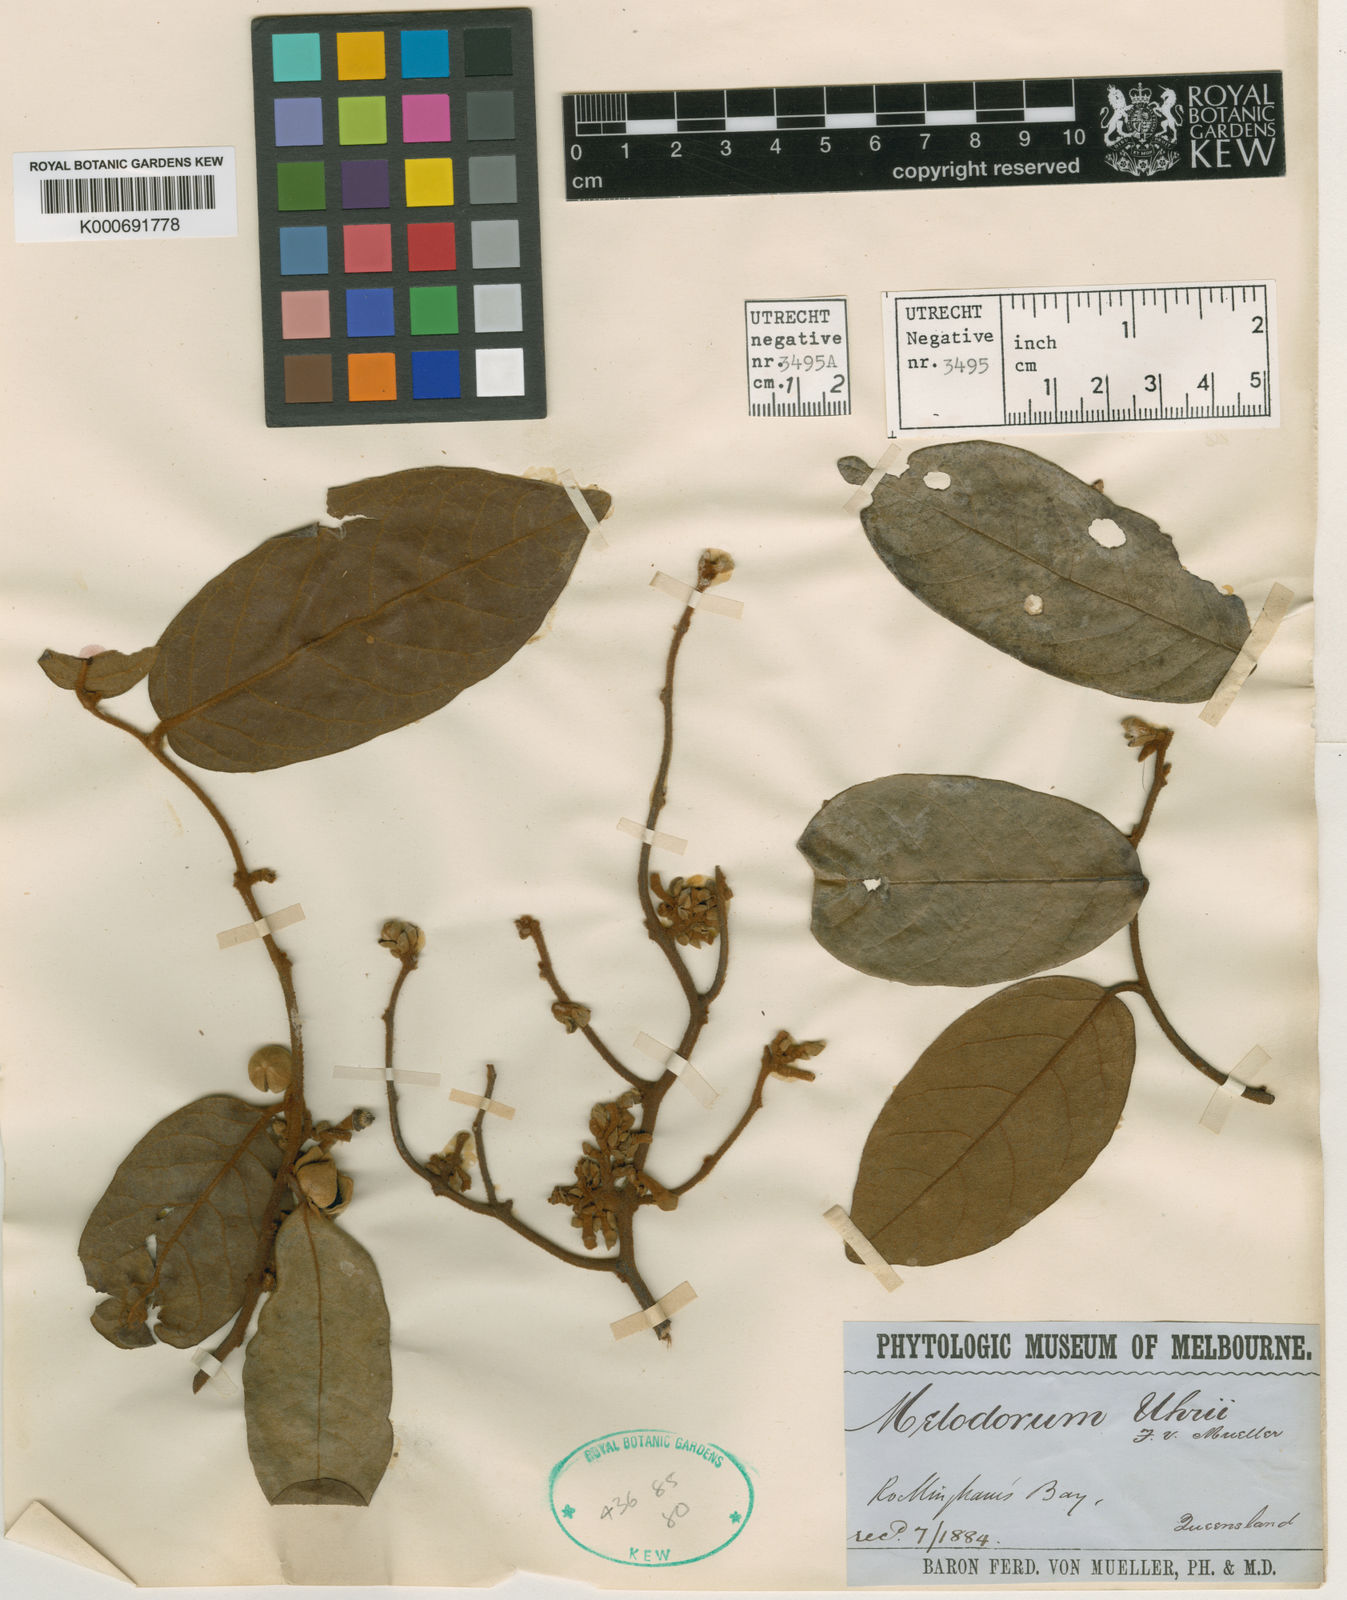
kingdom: Plantae
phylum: Tracheophyta
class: Magnoliopsida
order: Magnoliales
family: Annonaceae
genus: Uvaria
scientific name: Uvaria uhrii
